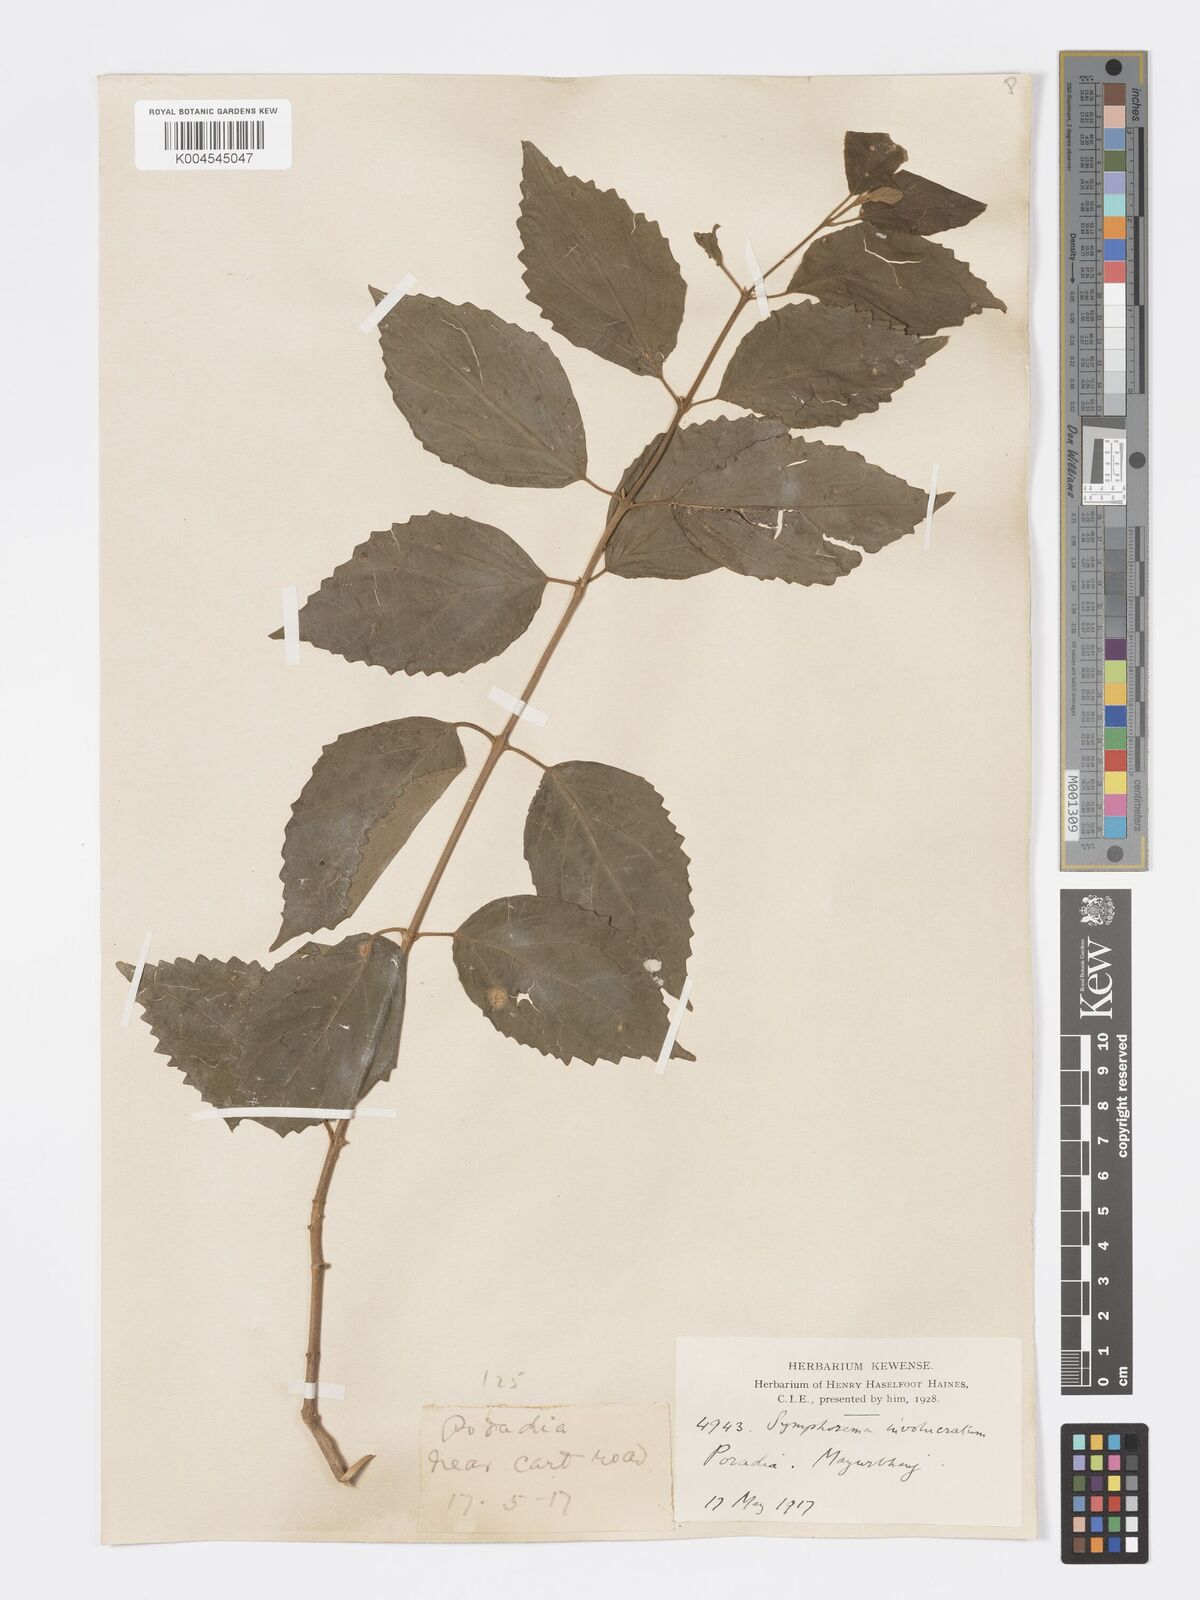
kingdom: Plantae
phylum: Tracheophyta
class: Magnoliopsida
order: Lamiales
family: Lamiaceae
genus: Symphorema
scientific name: Symphorema involucratum
